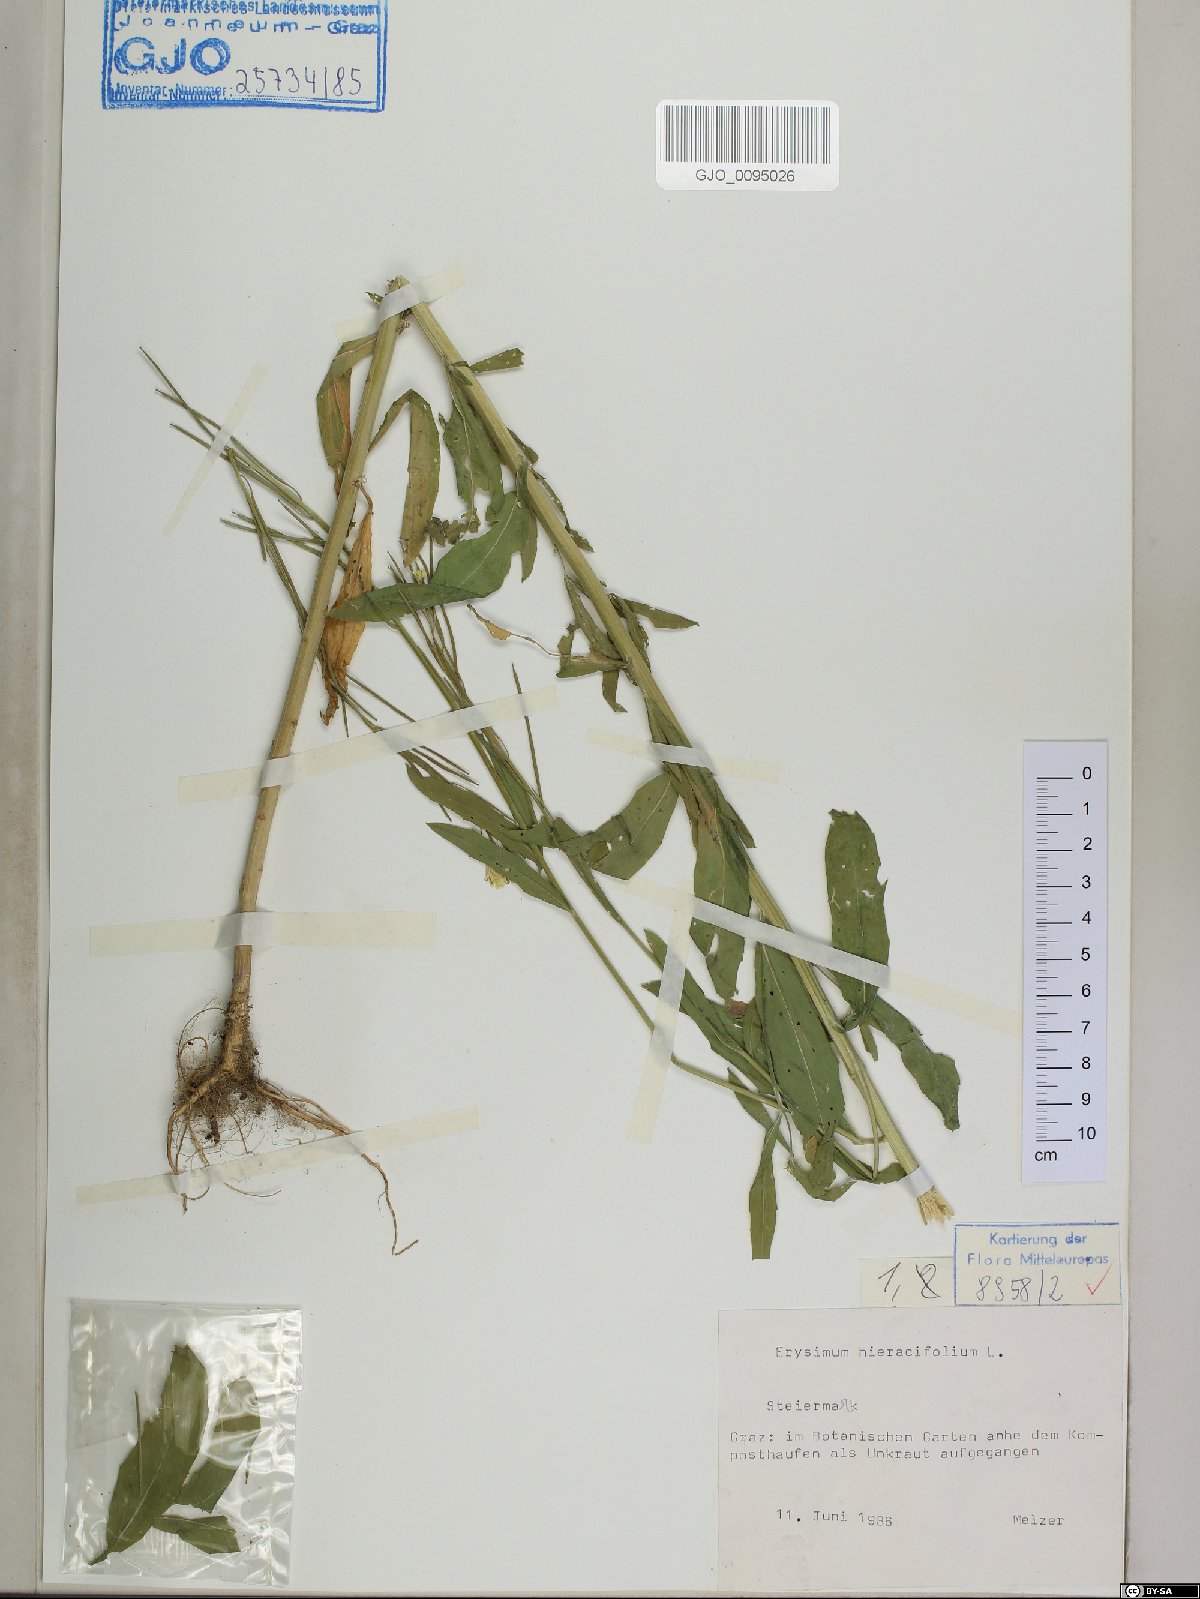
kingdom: Plantae
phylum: Tracheophyta
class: Magnoliopsida
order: Brassicales
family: Brassicaceae
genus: Erysimum
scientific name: Erysimum hieraciifolium
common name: European wallflower
